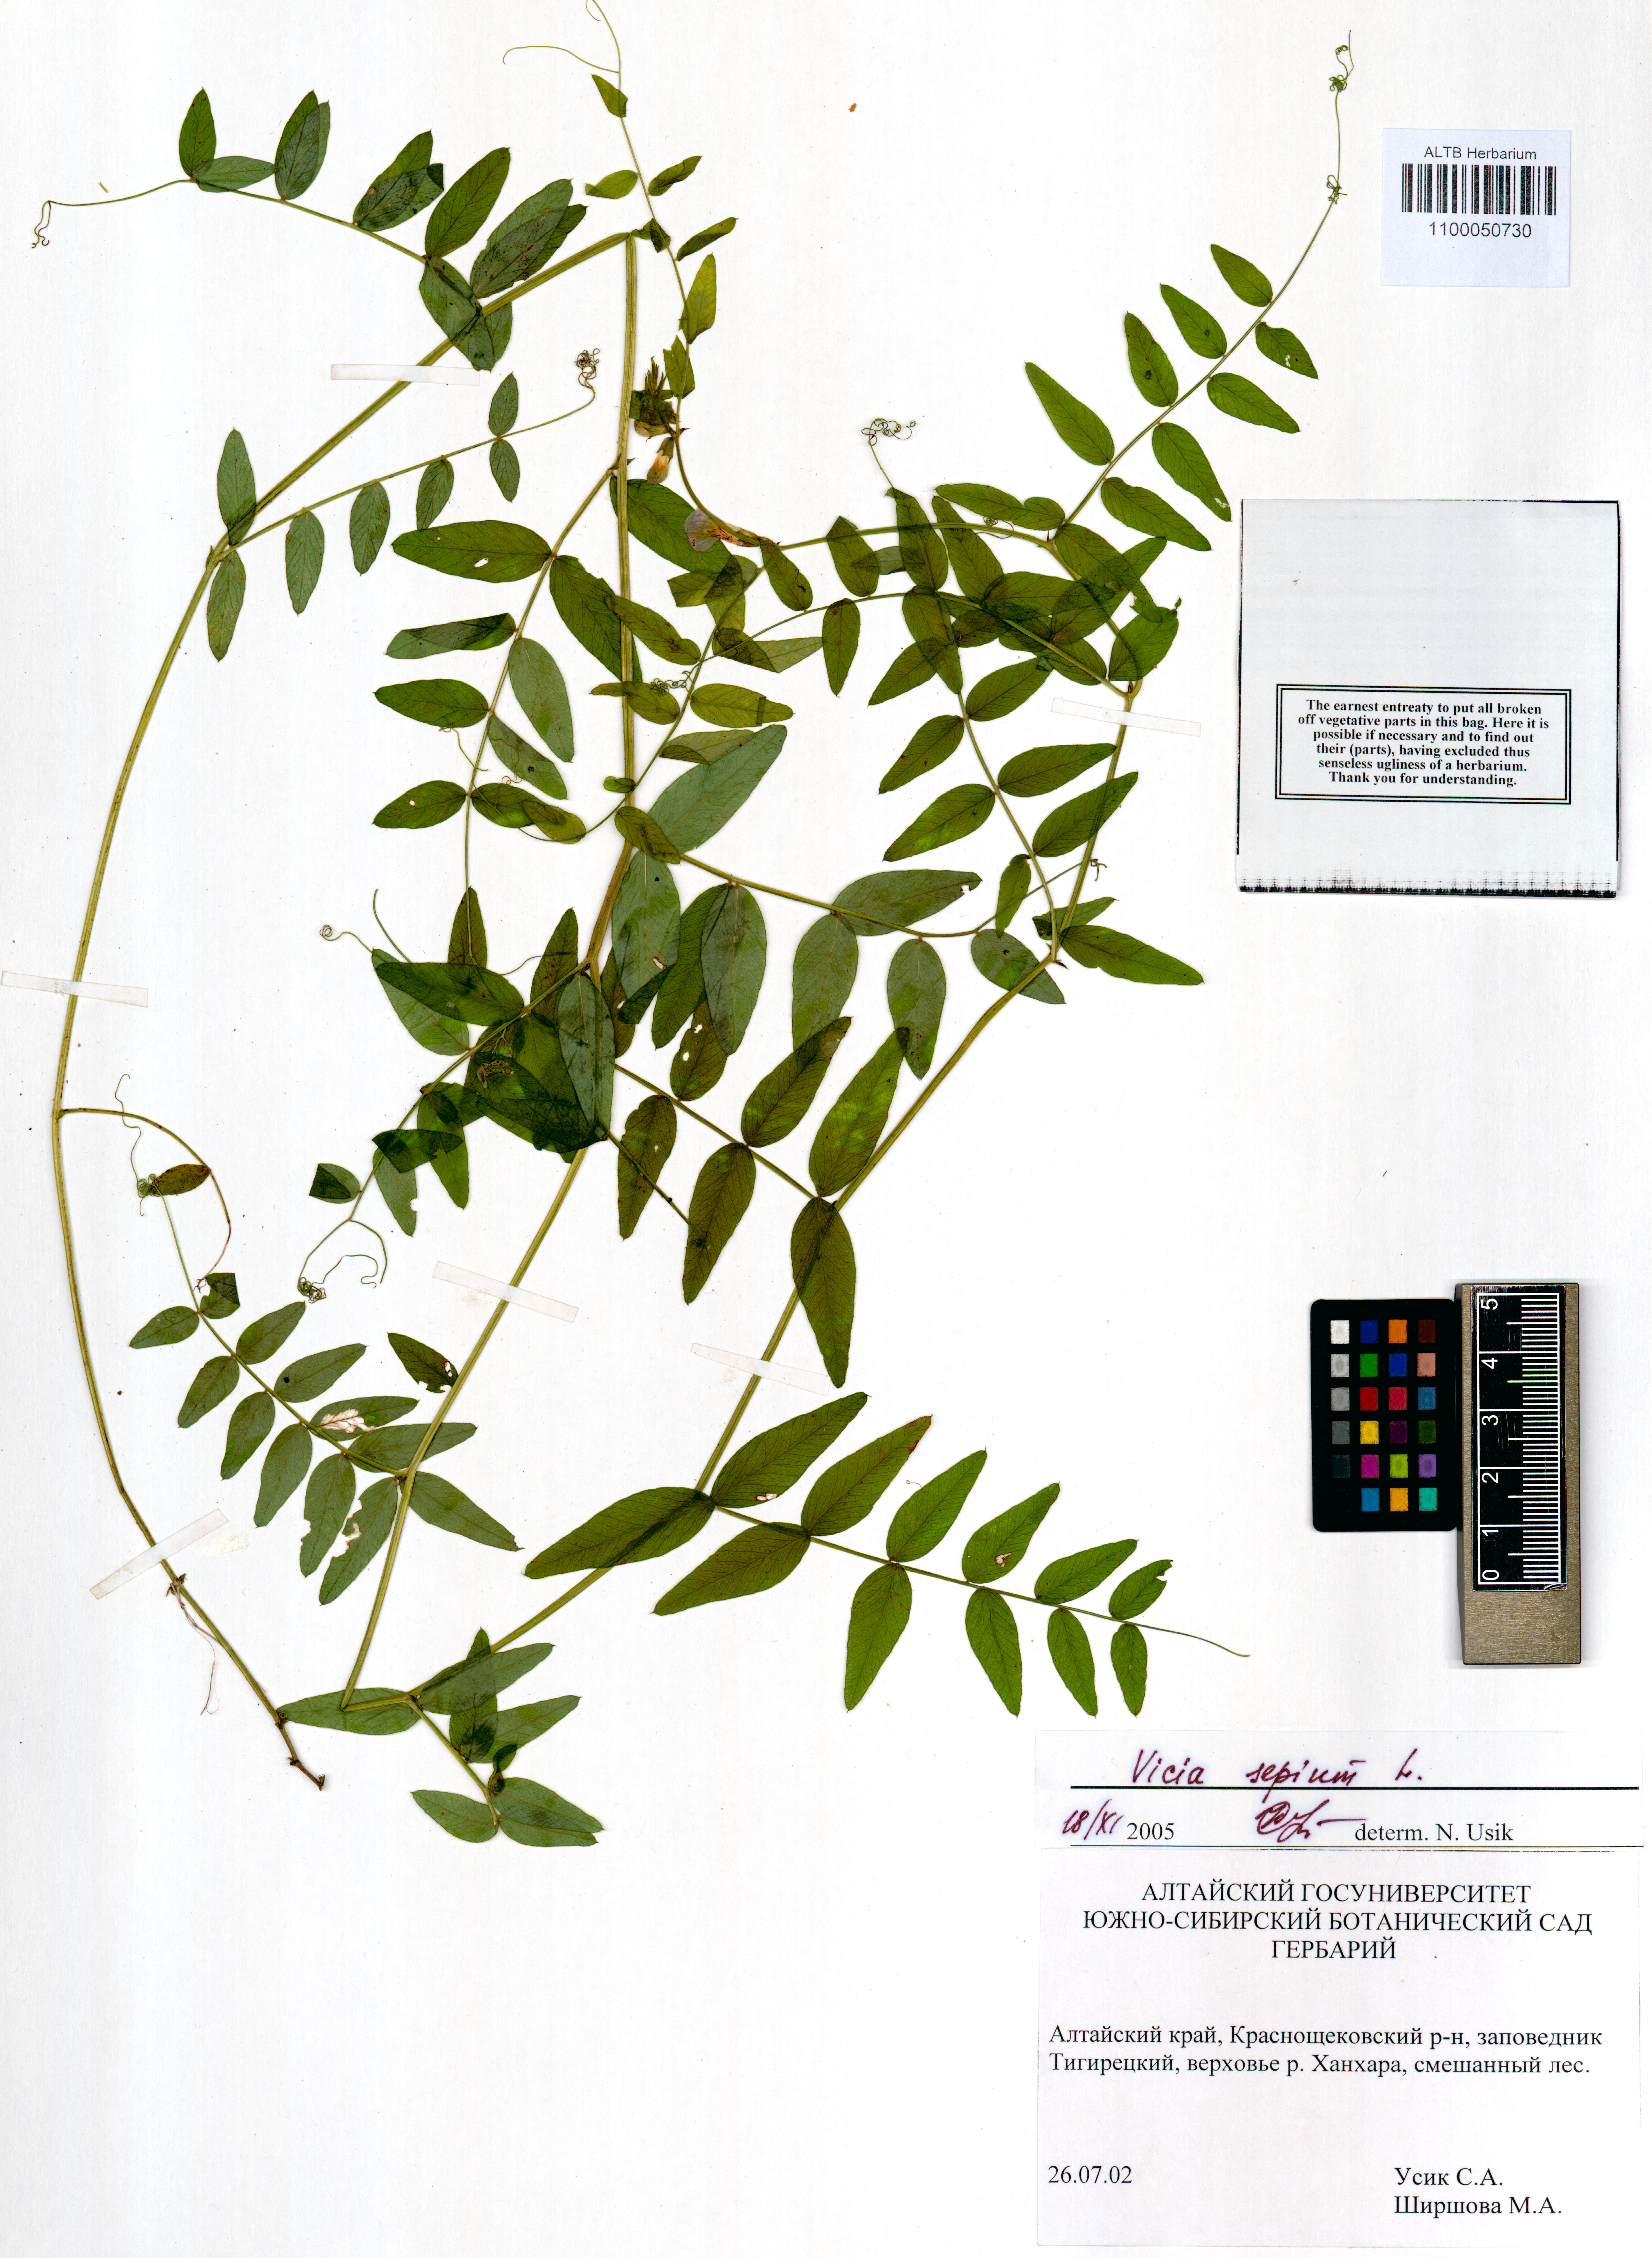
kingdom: Plantae
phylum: Tracheophyta
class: Magnoliopsida
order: Fabales
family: Fabaceae
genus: Vicia
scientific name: Vicia sepium
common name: Bush vetch
